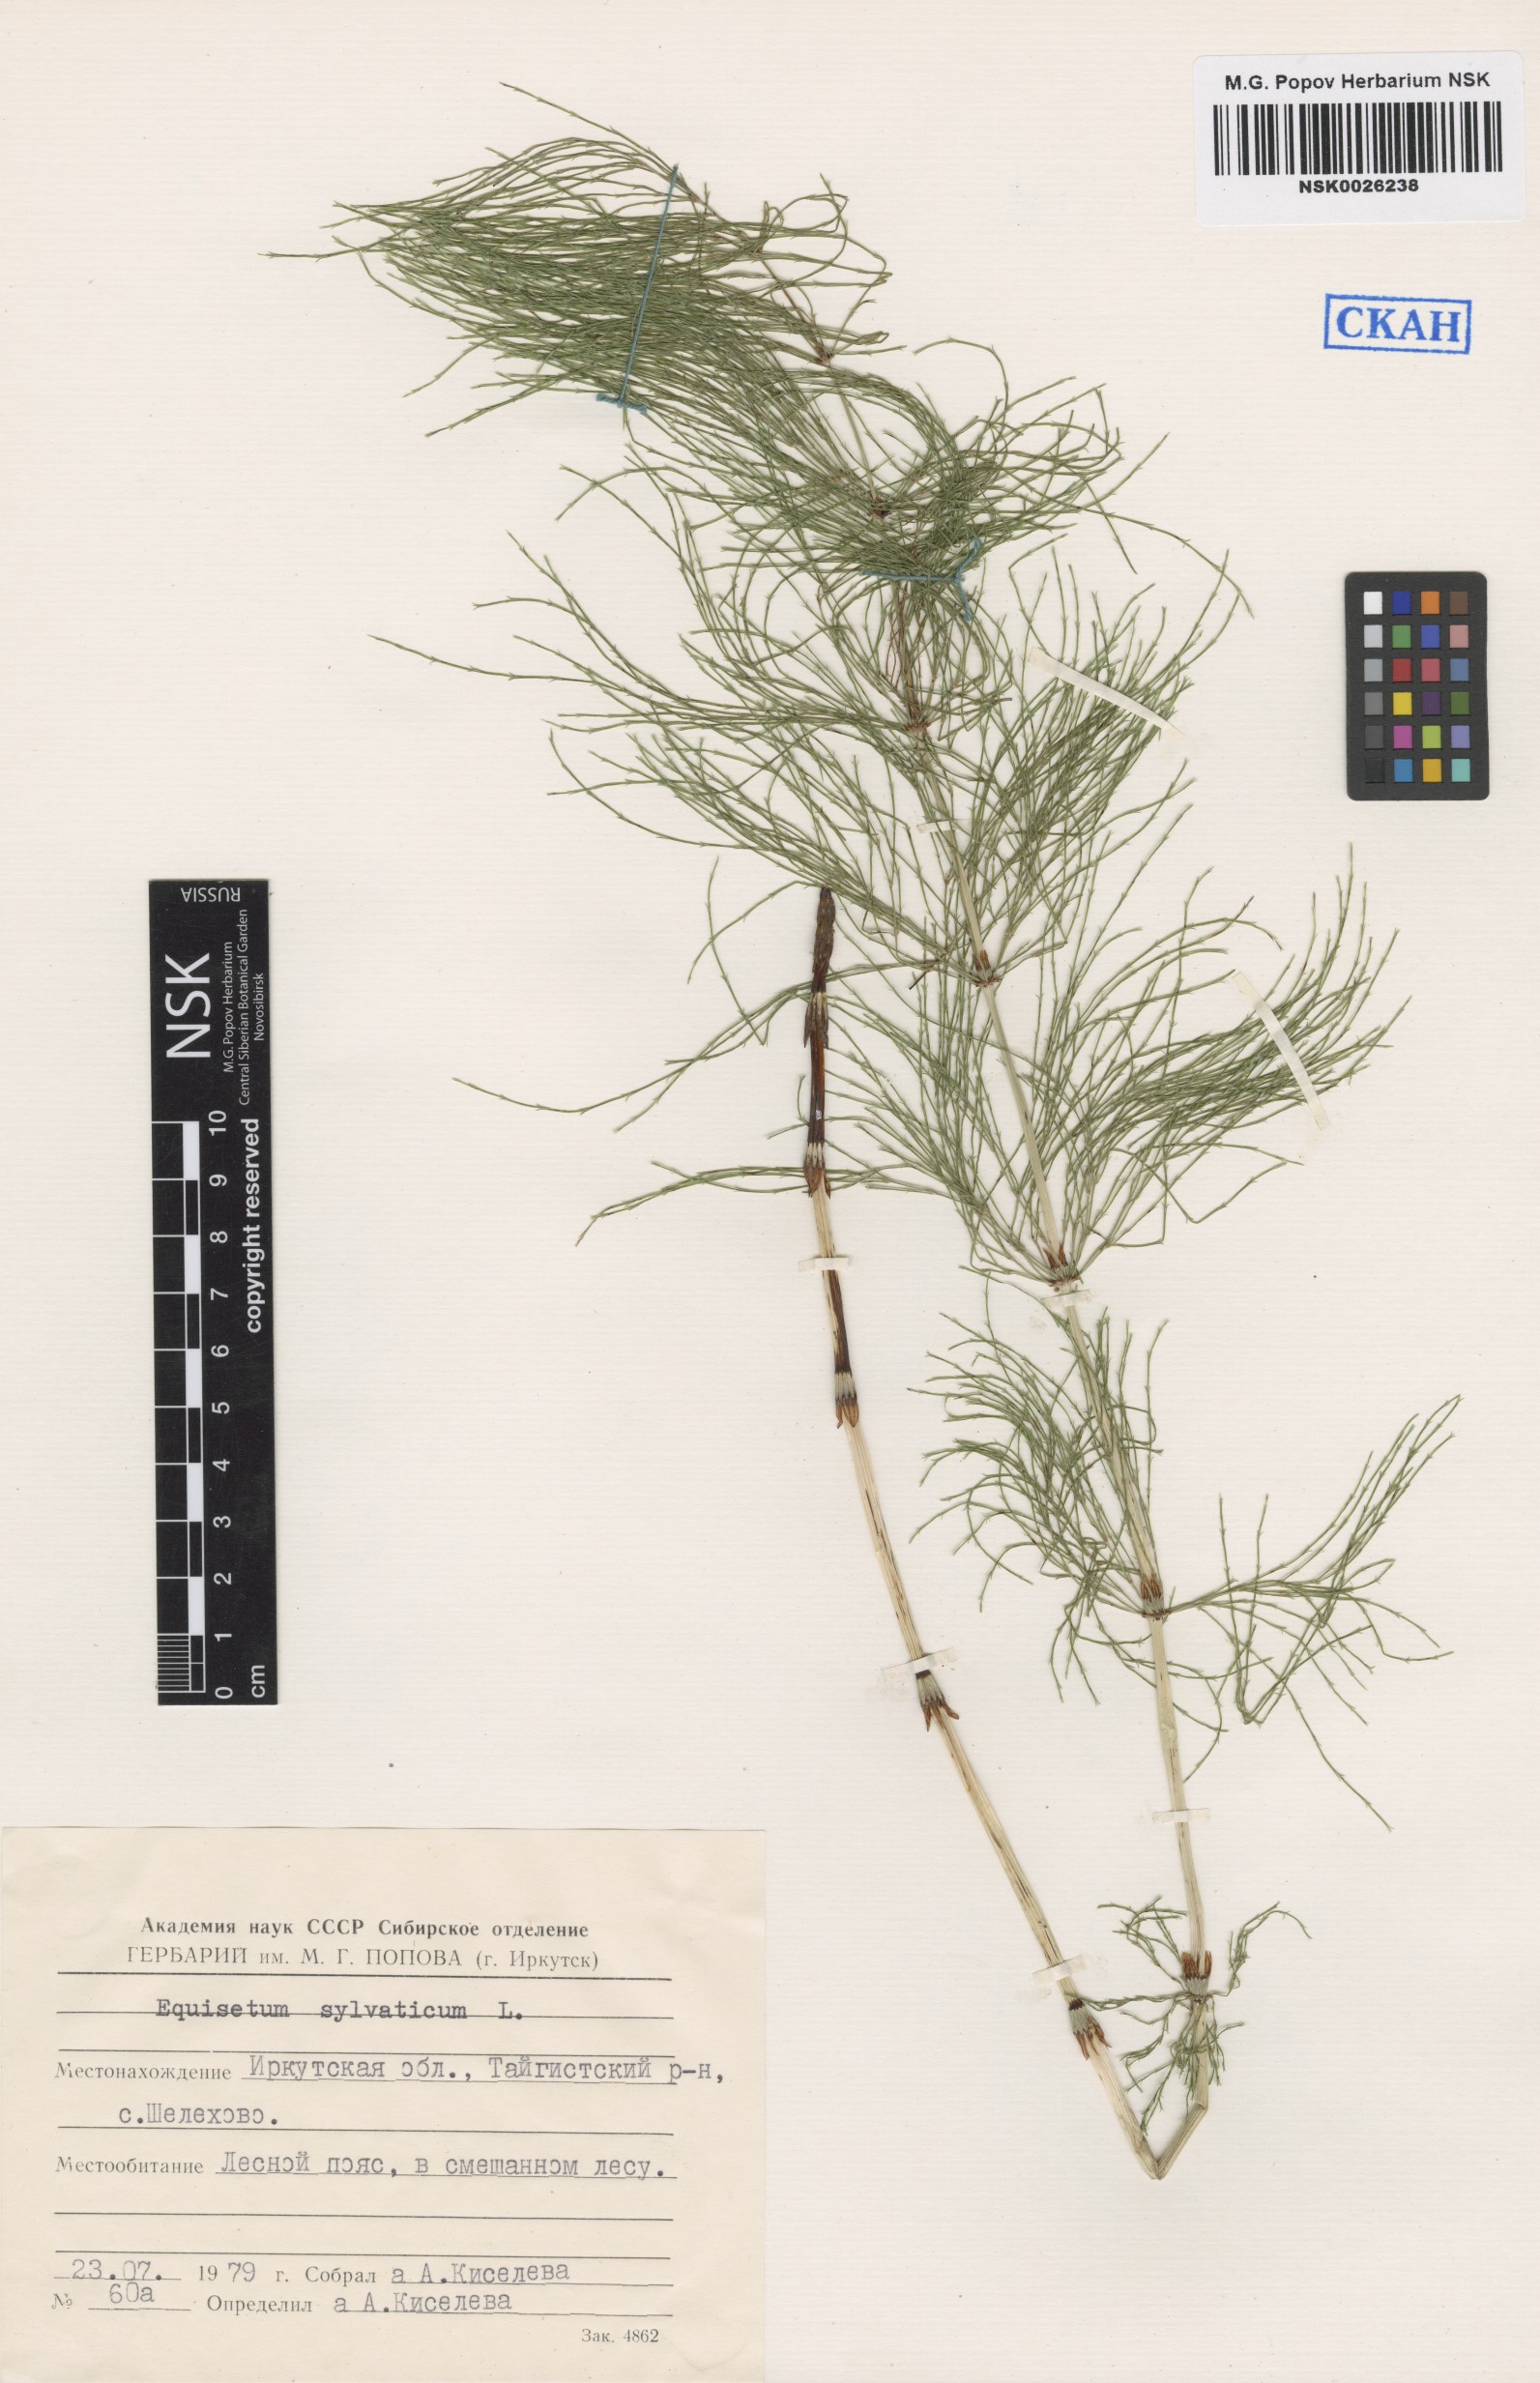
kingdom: Plantae
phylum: Tracheophyta
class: Polypodiopsida
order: Equisetales
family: Equisetaceae
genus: Equisetum
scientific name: Equisetum sylvaticum
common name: Wood horsetail
